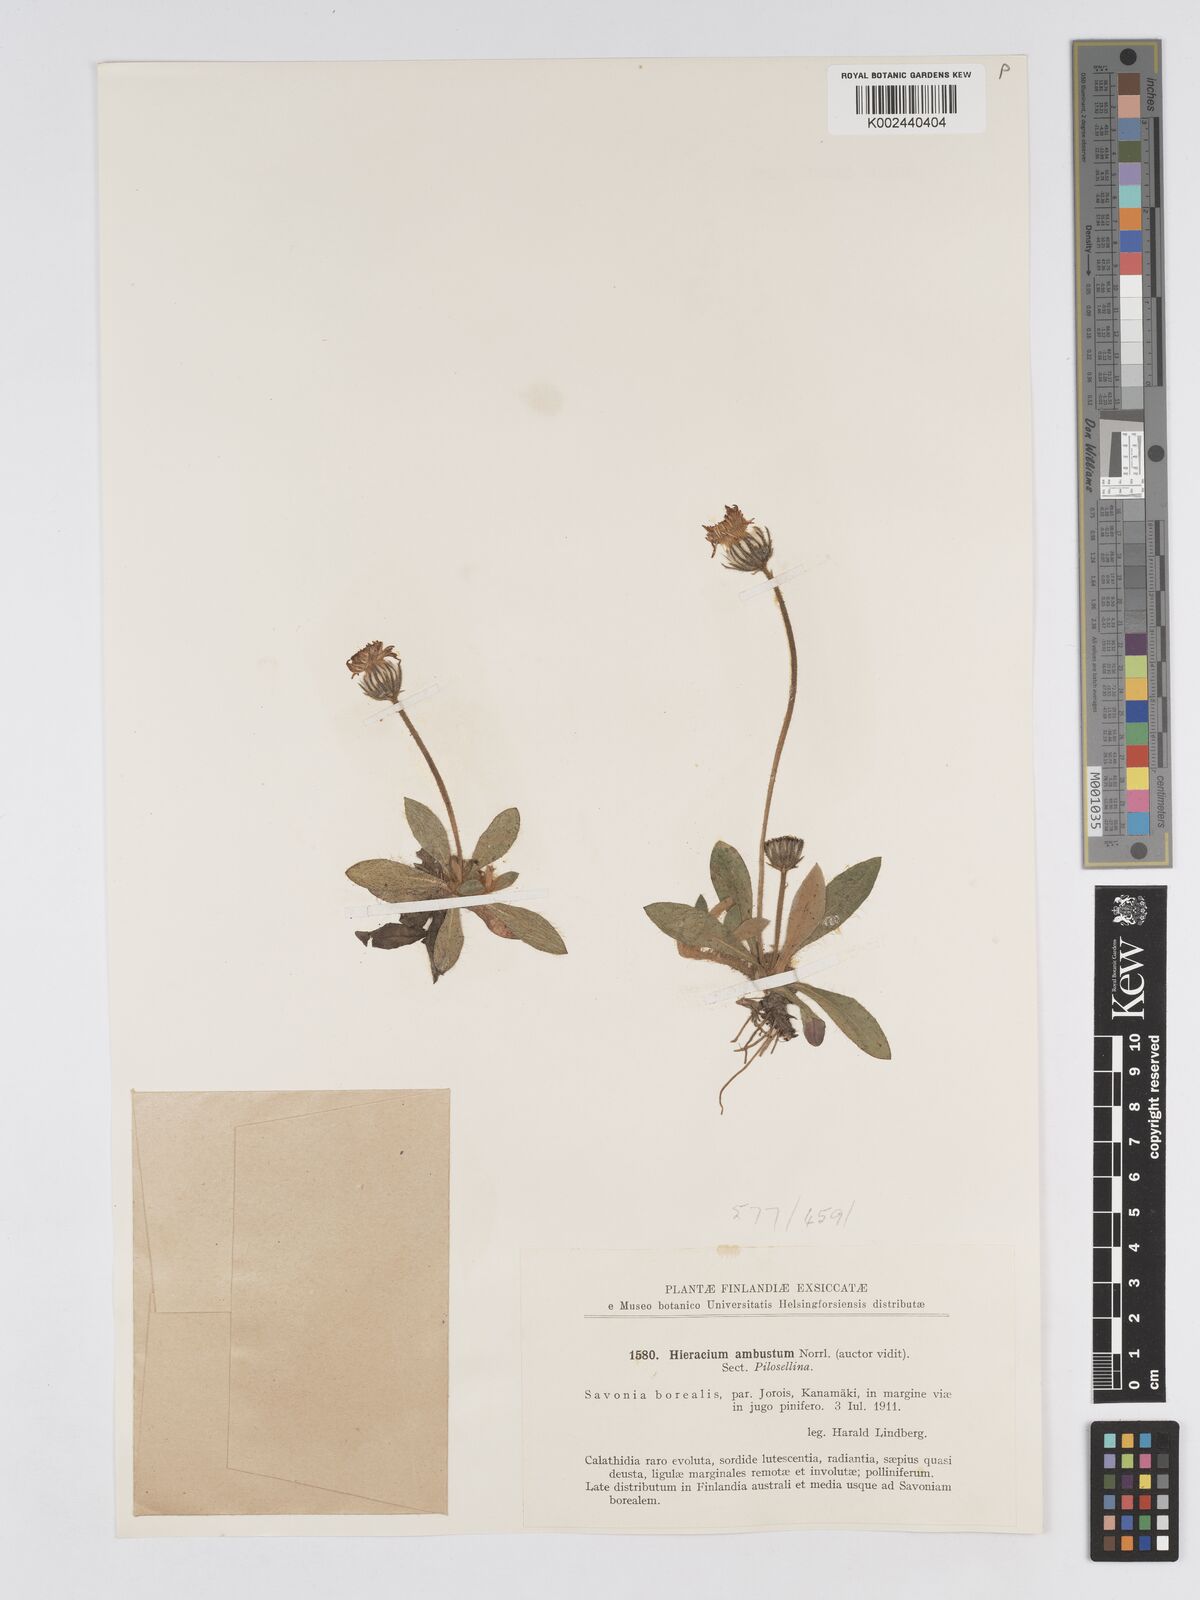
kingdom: Plantae
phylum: Tracheophyta
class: Magnoliopsida
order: Asterales
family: Asteraceae
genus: Hieracium
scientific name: Hieracium
